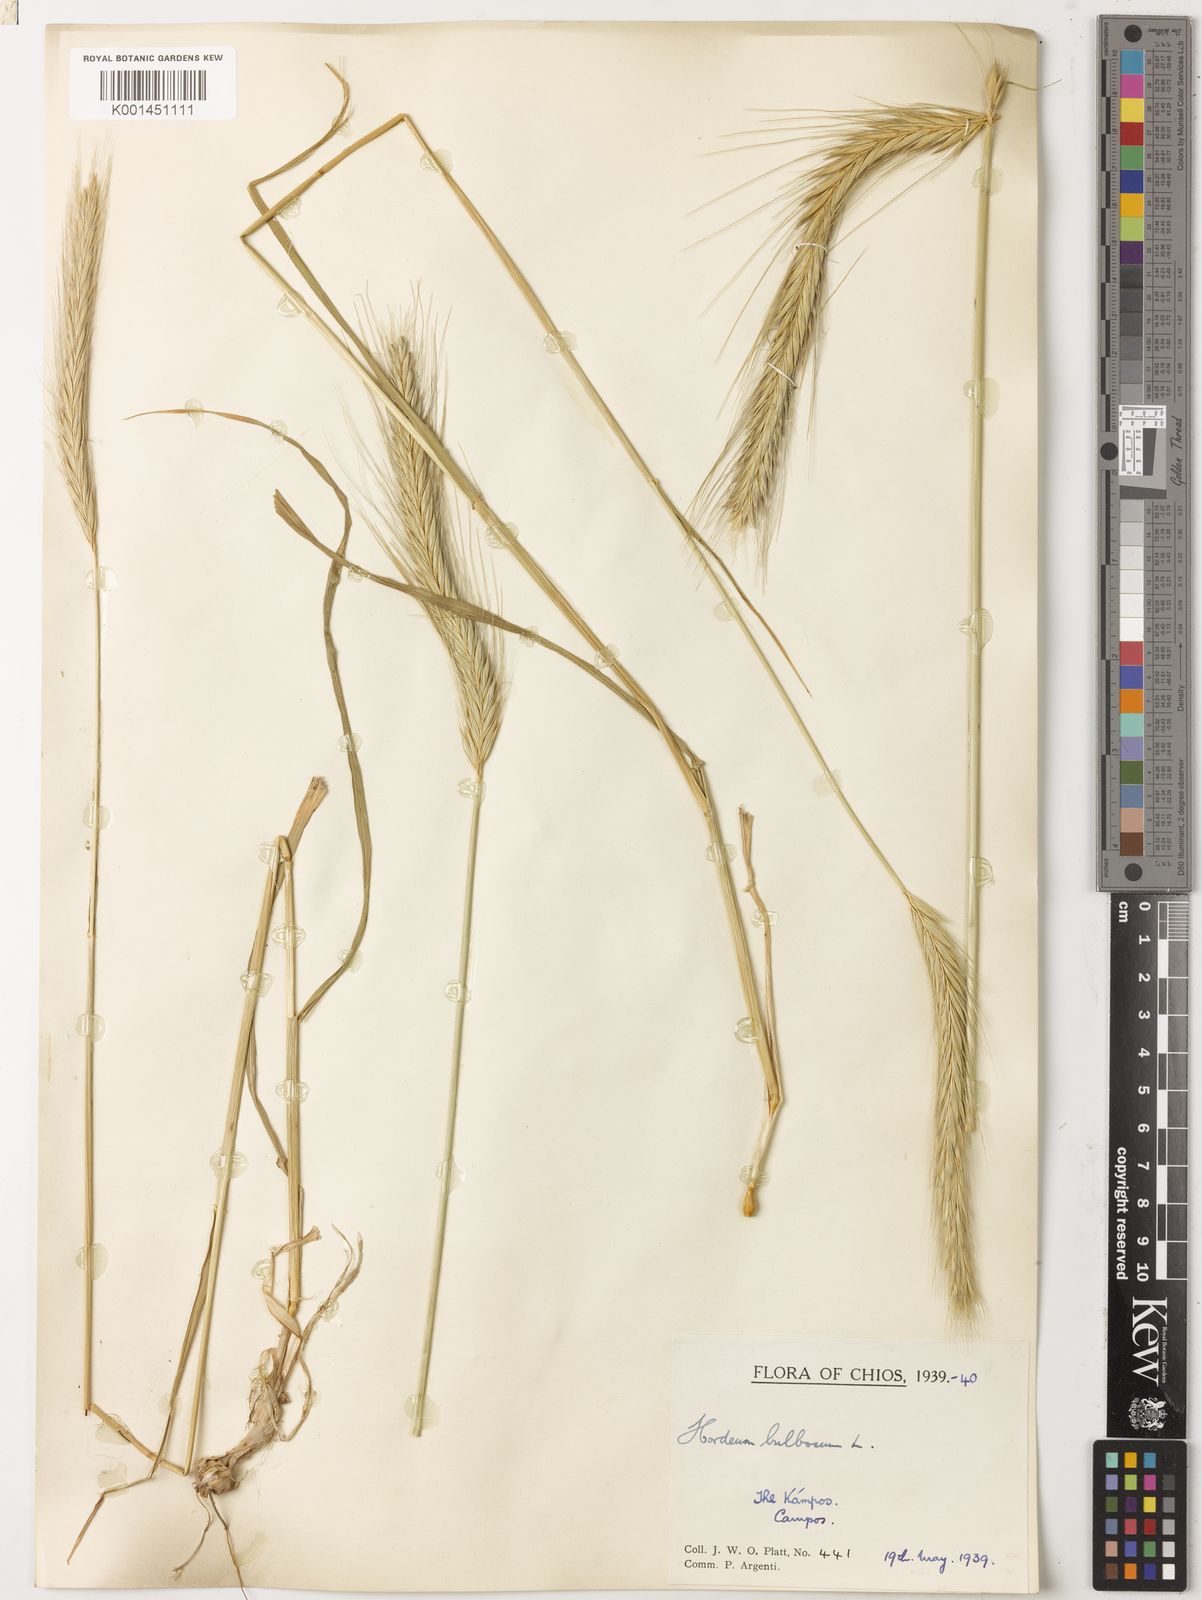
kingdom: Plantae
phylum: Tracheophyta
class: Liliopsida
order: Poales
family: Poaceae
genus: Hordeum
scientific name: Hordeum bulbosum
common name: Bulbous barley
